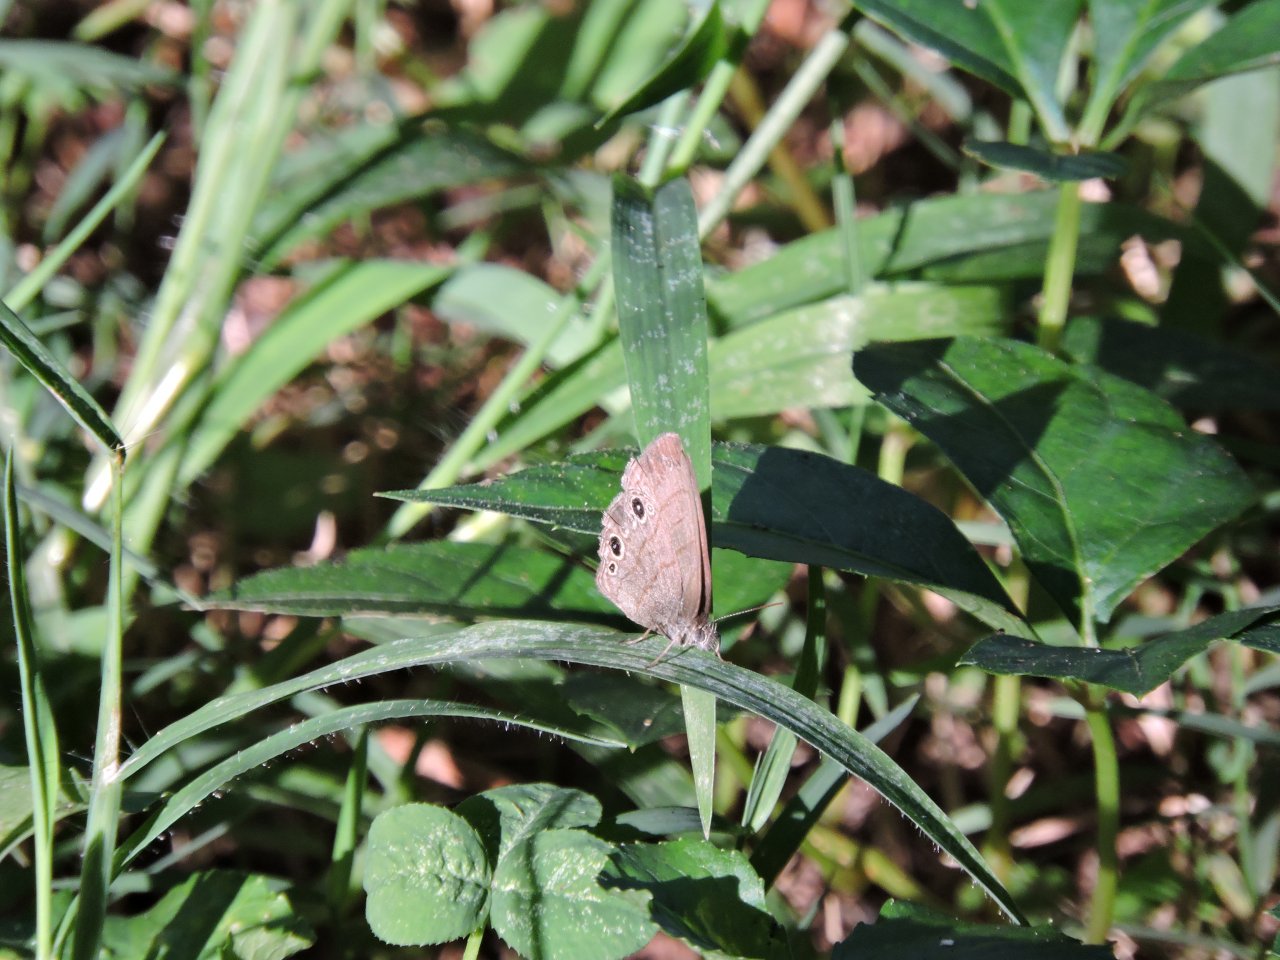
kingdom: Animalia
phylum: Arthropoda
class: Insecta
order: Lepidoptera
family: Nymphalidae
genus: Hermeuptychia
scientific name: Hermeuptychia hermes
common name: Carolina Satyr
